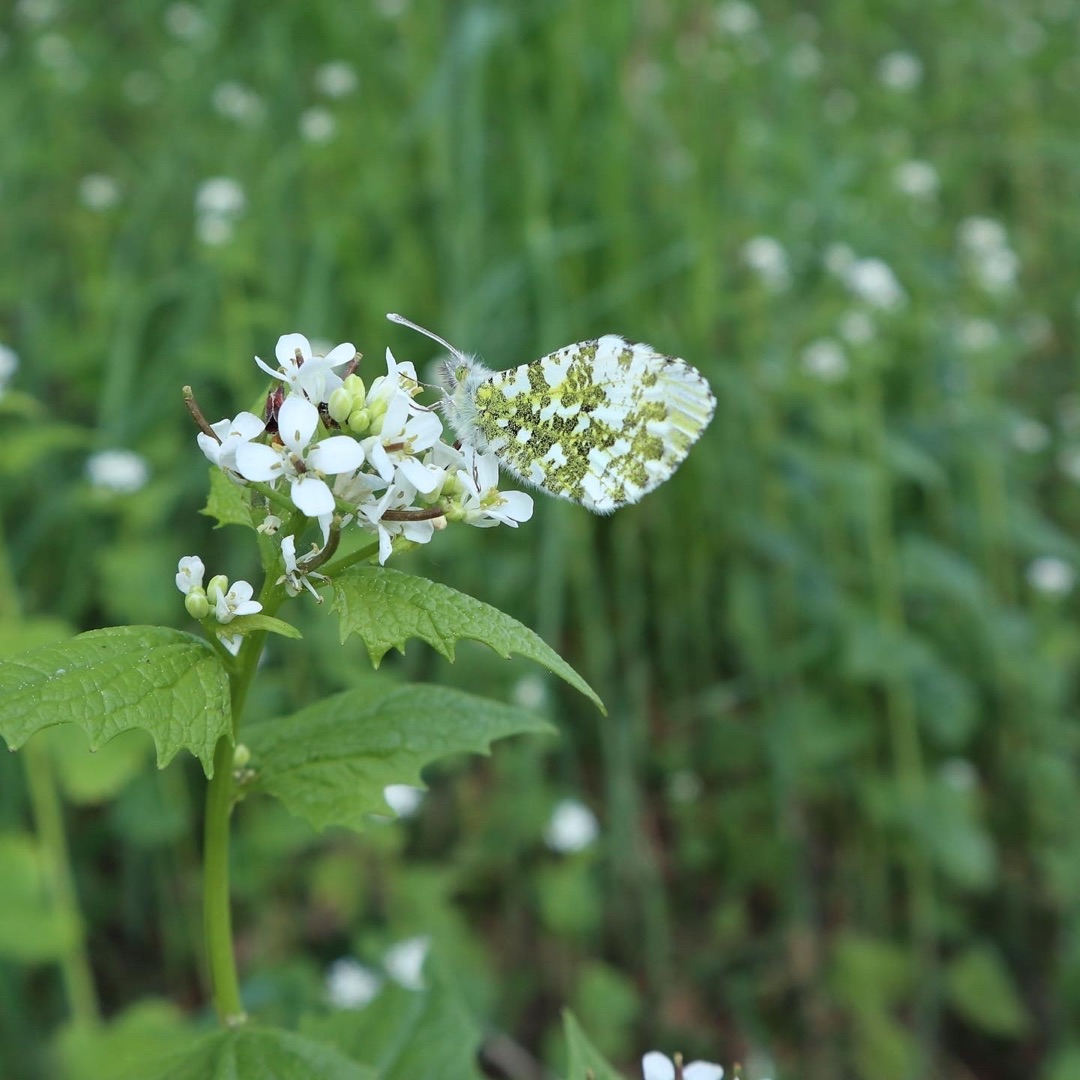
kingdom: Animalia
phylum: Arthropoda
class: Insecta
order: Lepidoptera
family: Pieridae
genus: Anthocharis
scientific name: Anthocharis cardamines
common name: Aurora
